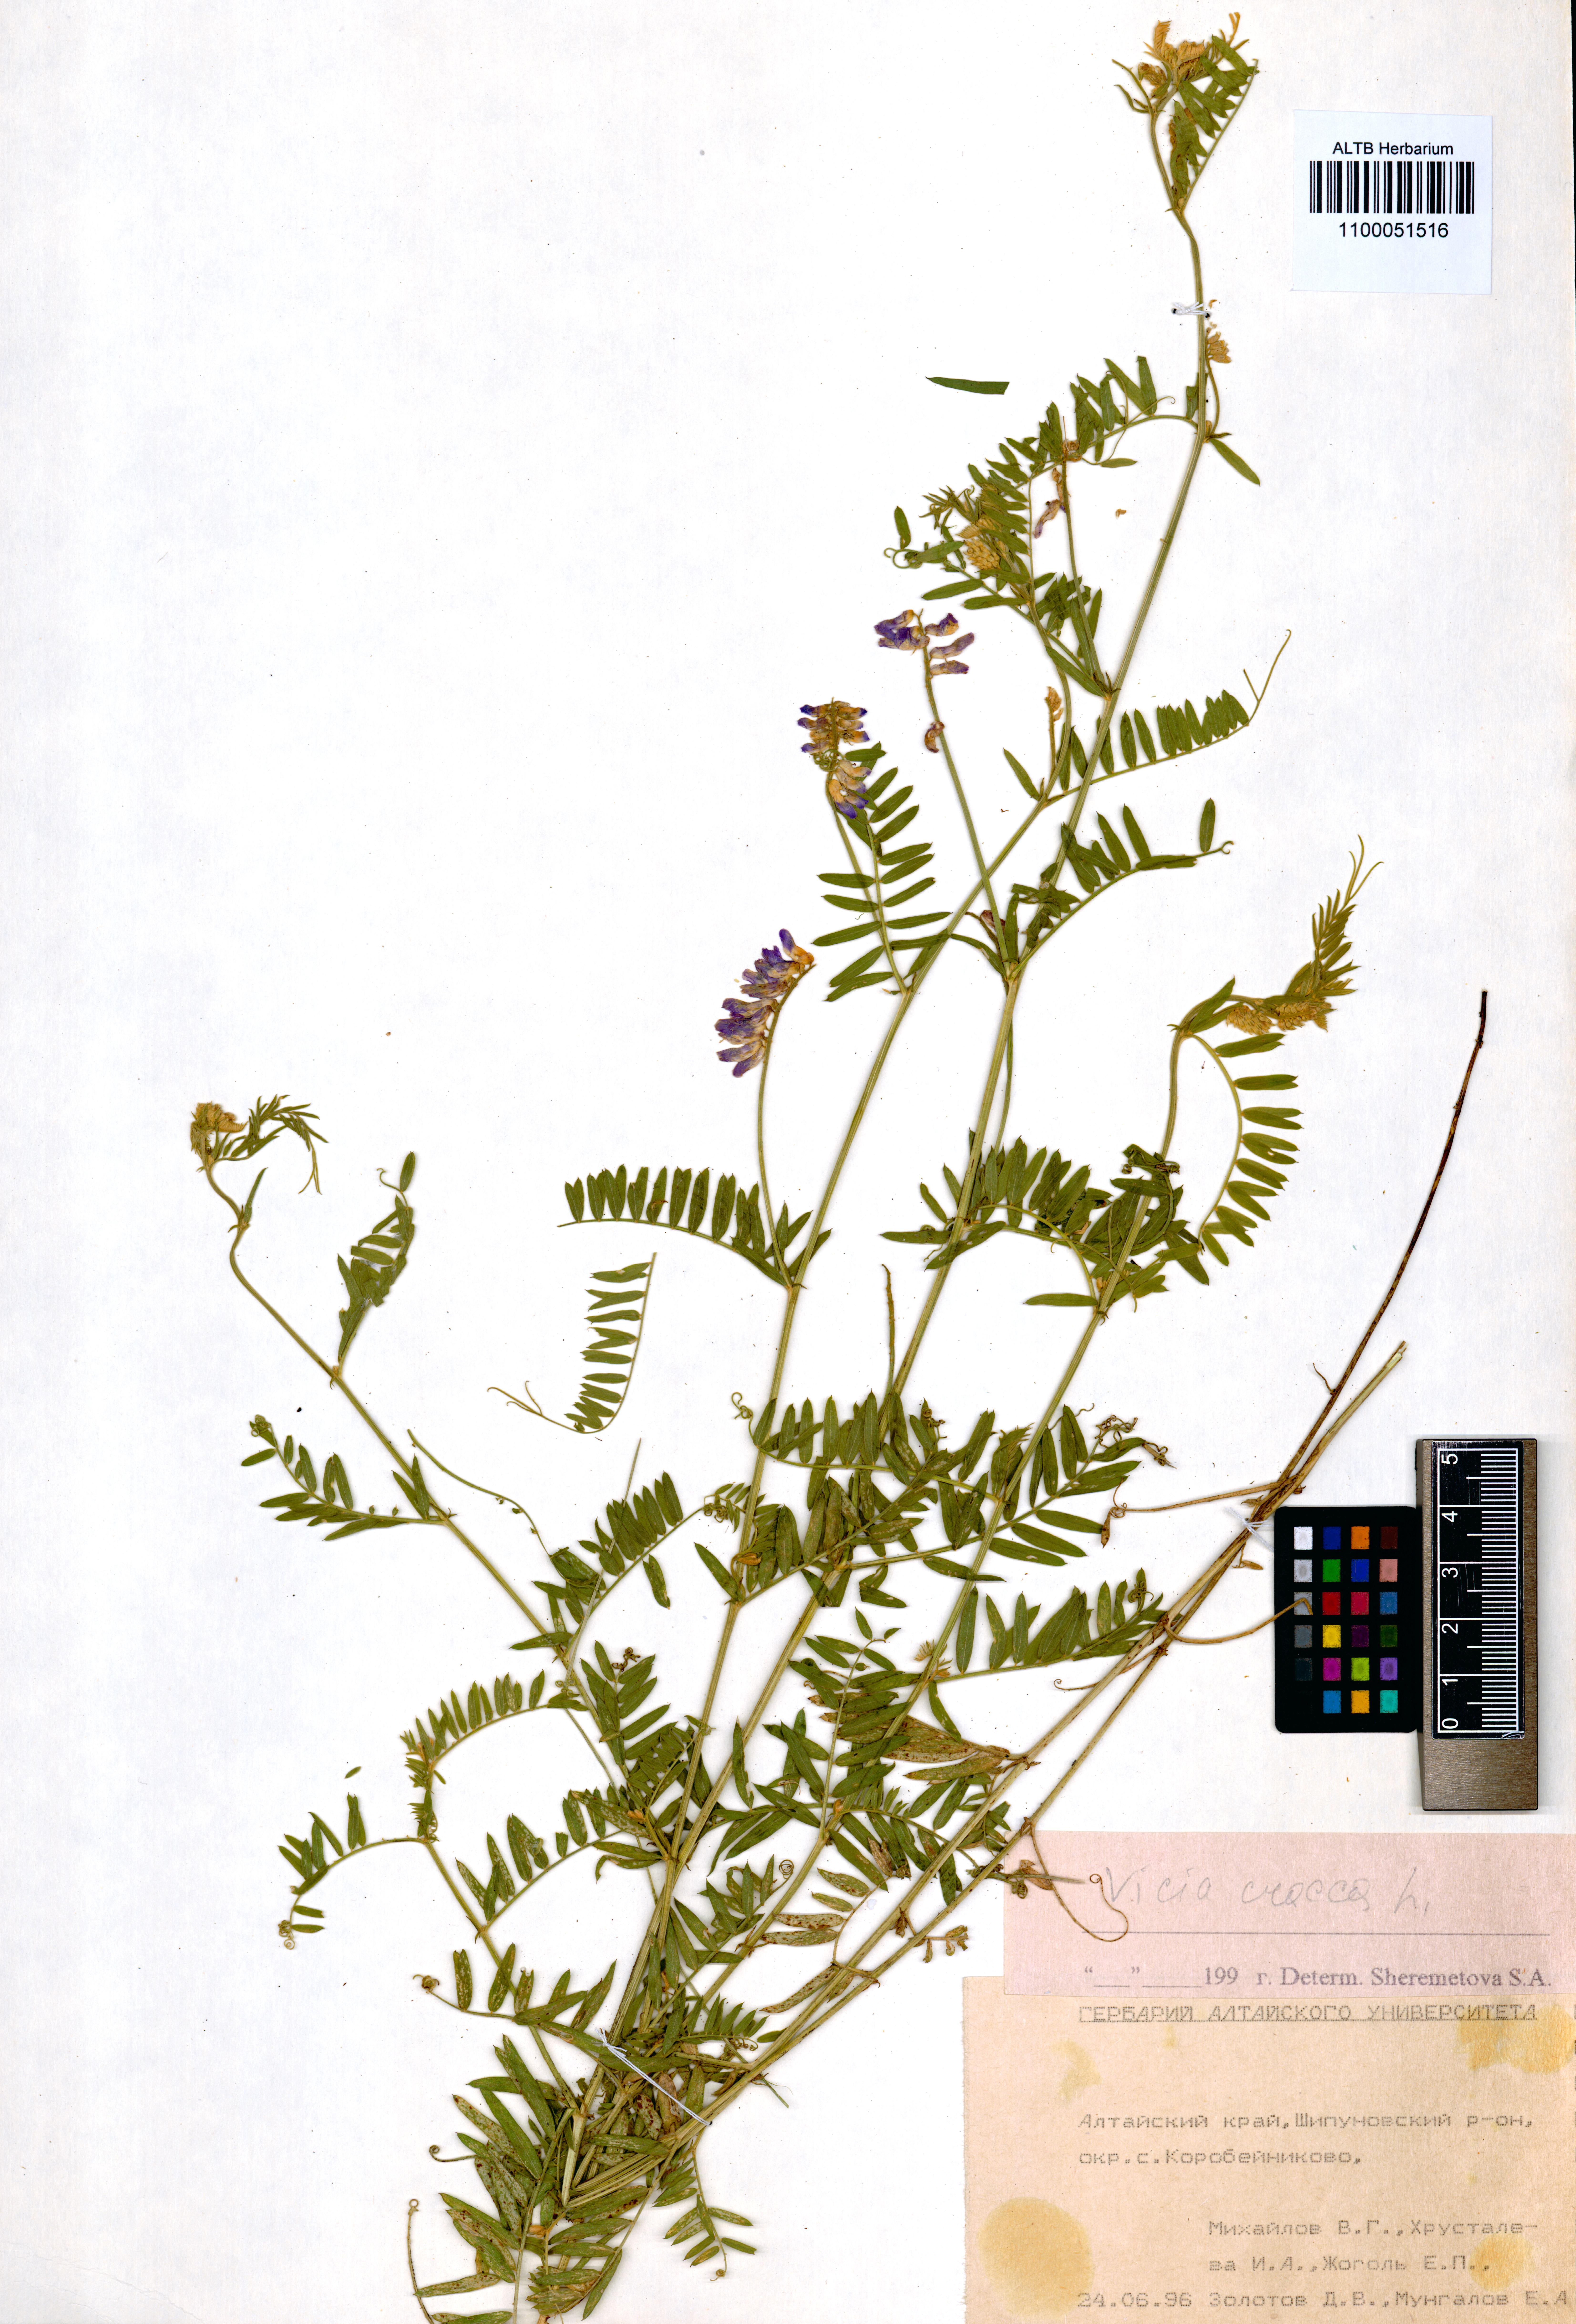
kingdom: Plantae
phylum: Tracheophyta
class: Magnoliopsida
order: Fabales
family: Fabaceae
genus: Vicia
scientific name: Vicia cracca
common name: Bird vetch
